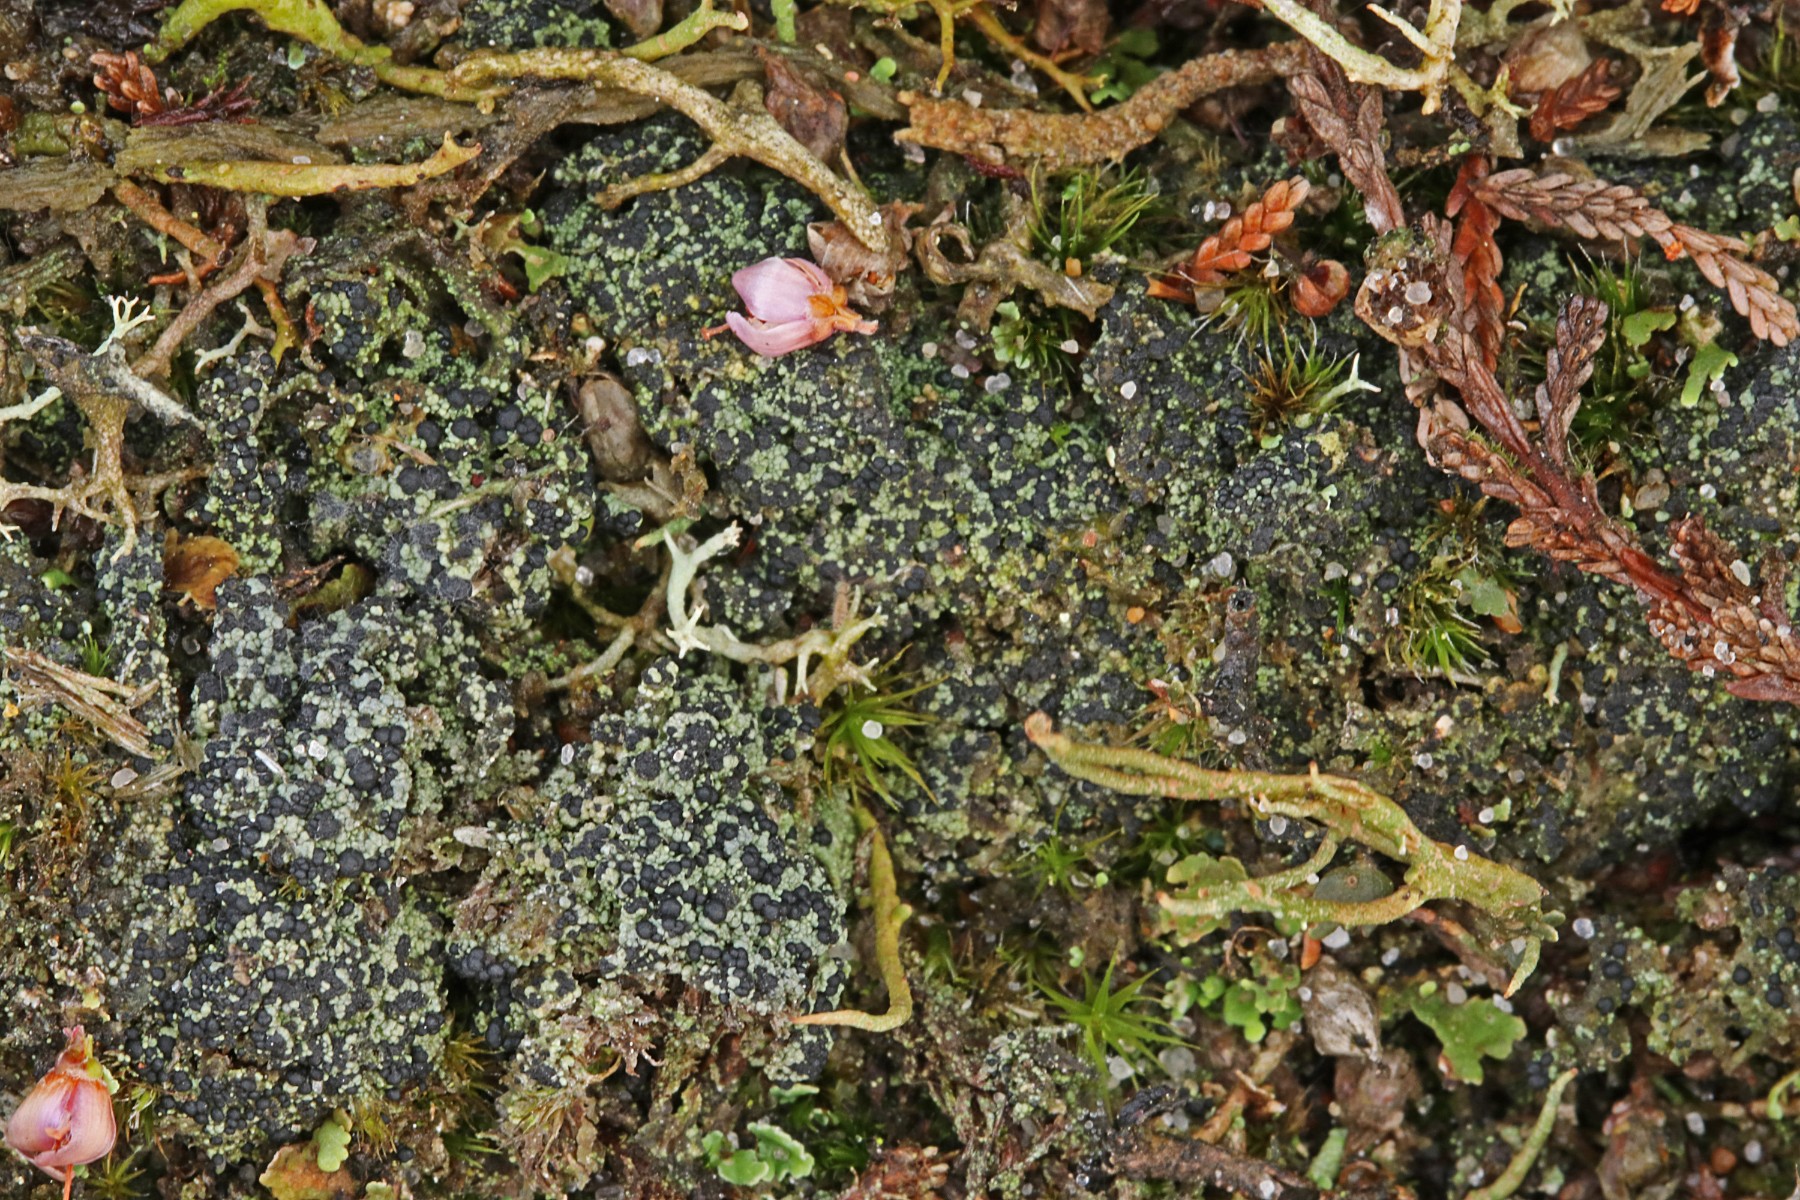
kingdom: Fungi
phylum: Ascomycota
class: Lecanoromycetes
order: Lecanorales
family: Byssolomataceae
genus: Micarea
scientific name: Micarea lignaria
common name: tørve-knaplav
